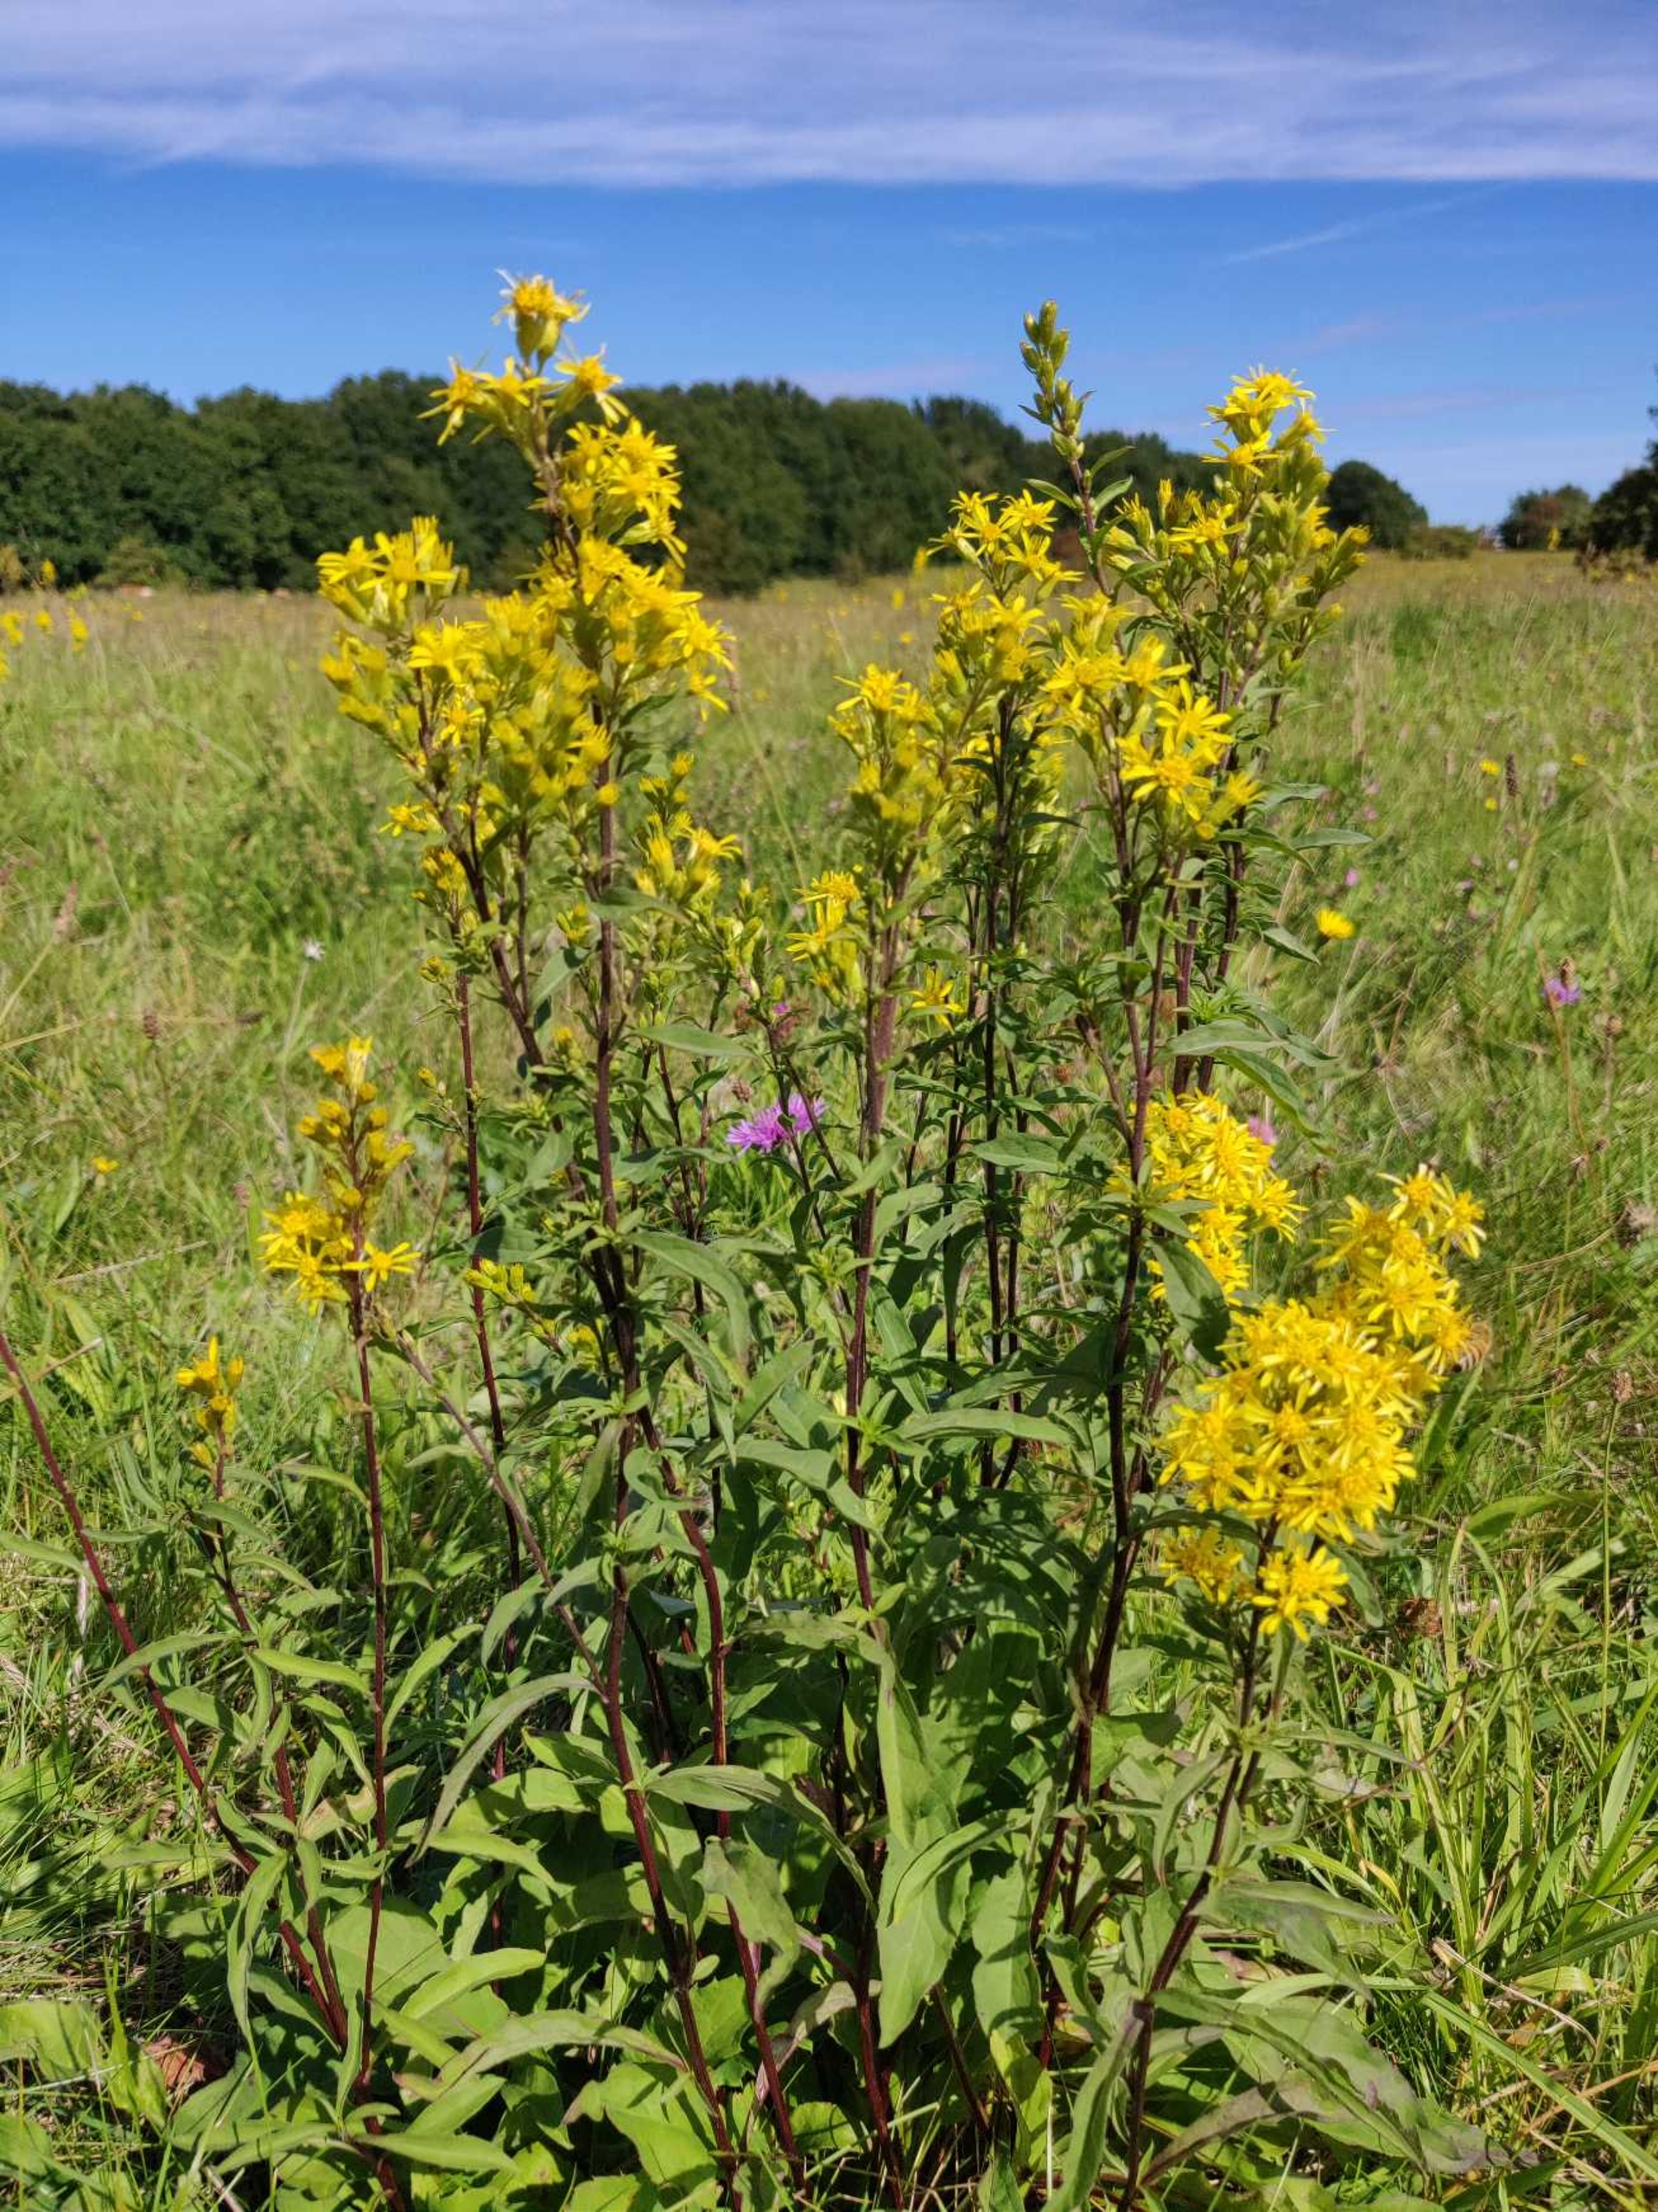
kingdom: Plantae
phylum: Tracheophyta
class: Magnoliopsida
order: Asterales
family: Asteraceae
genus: Solidago
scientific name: Solidago virgaurea
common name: Almindelig gyldenris
